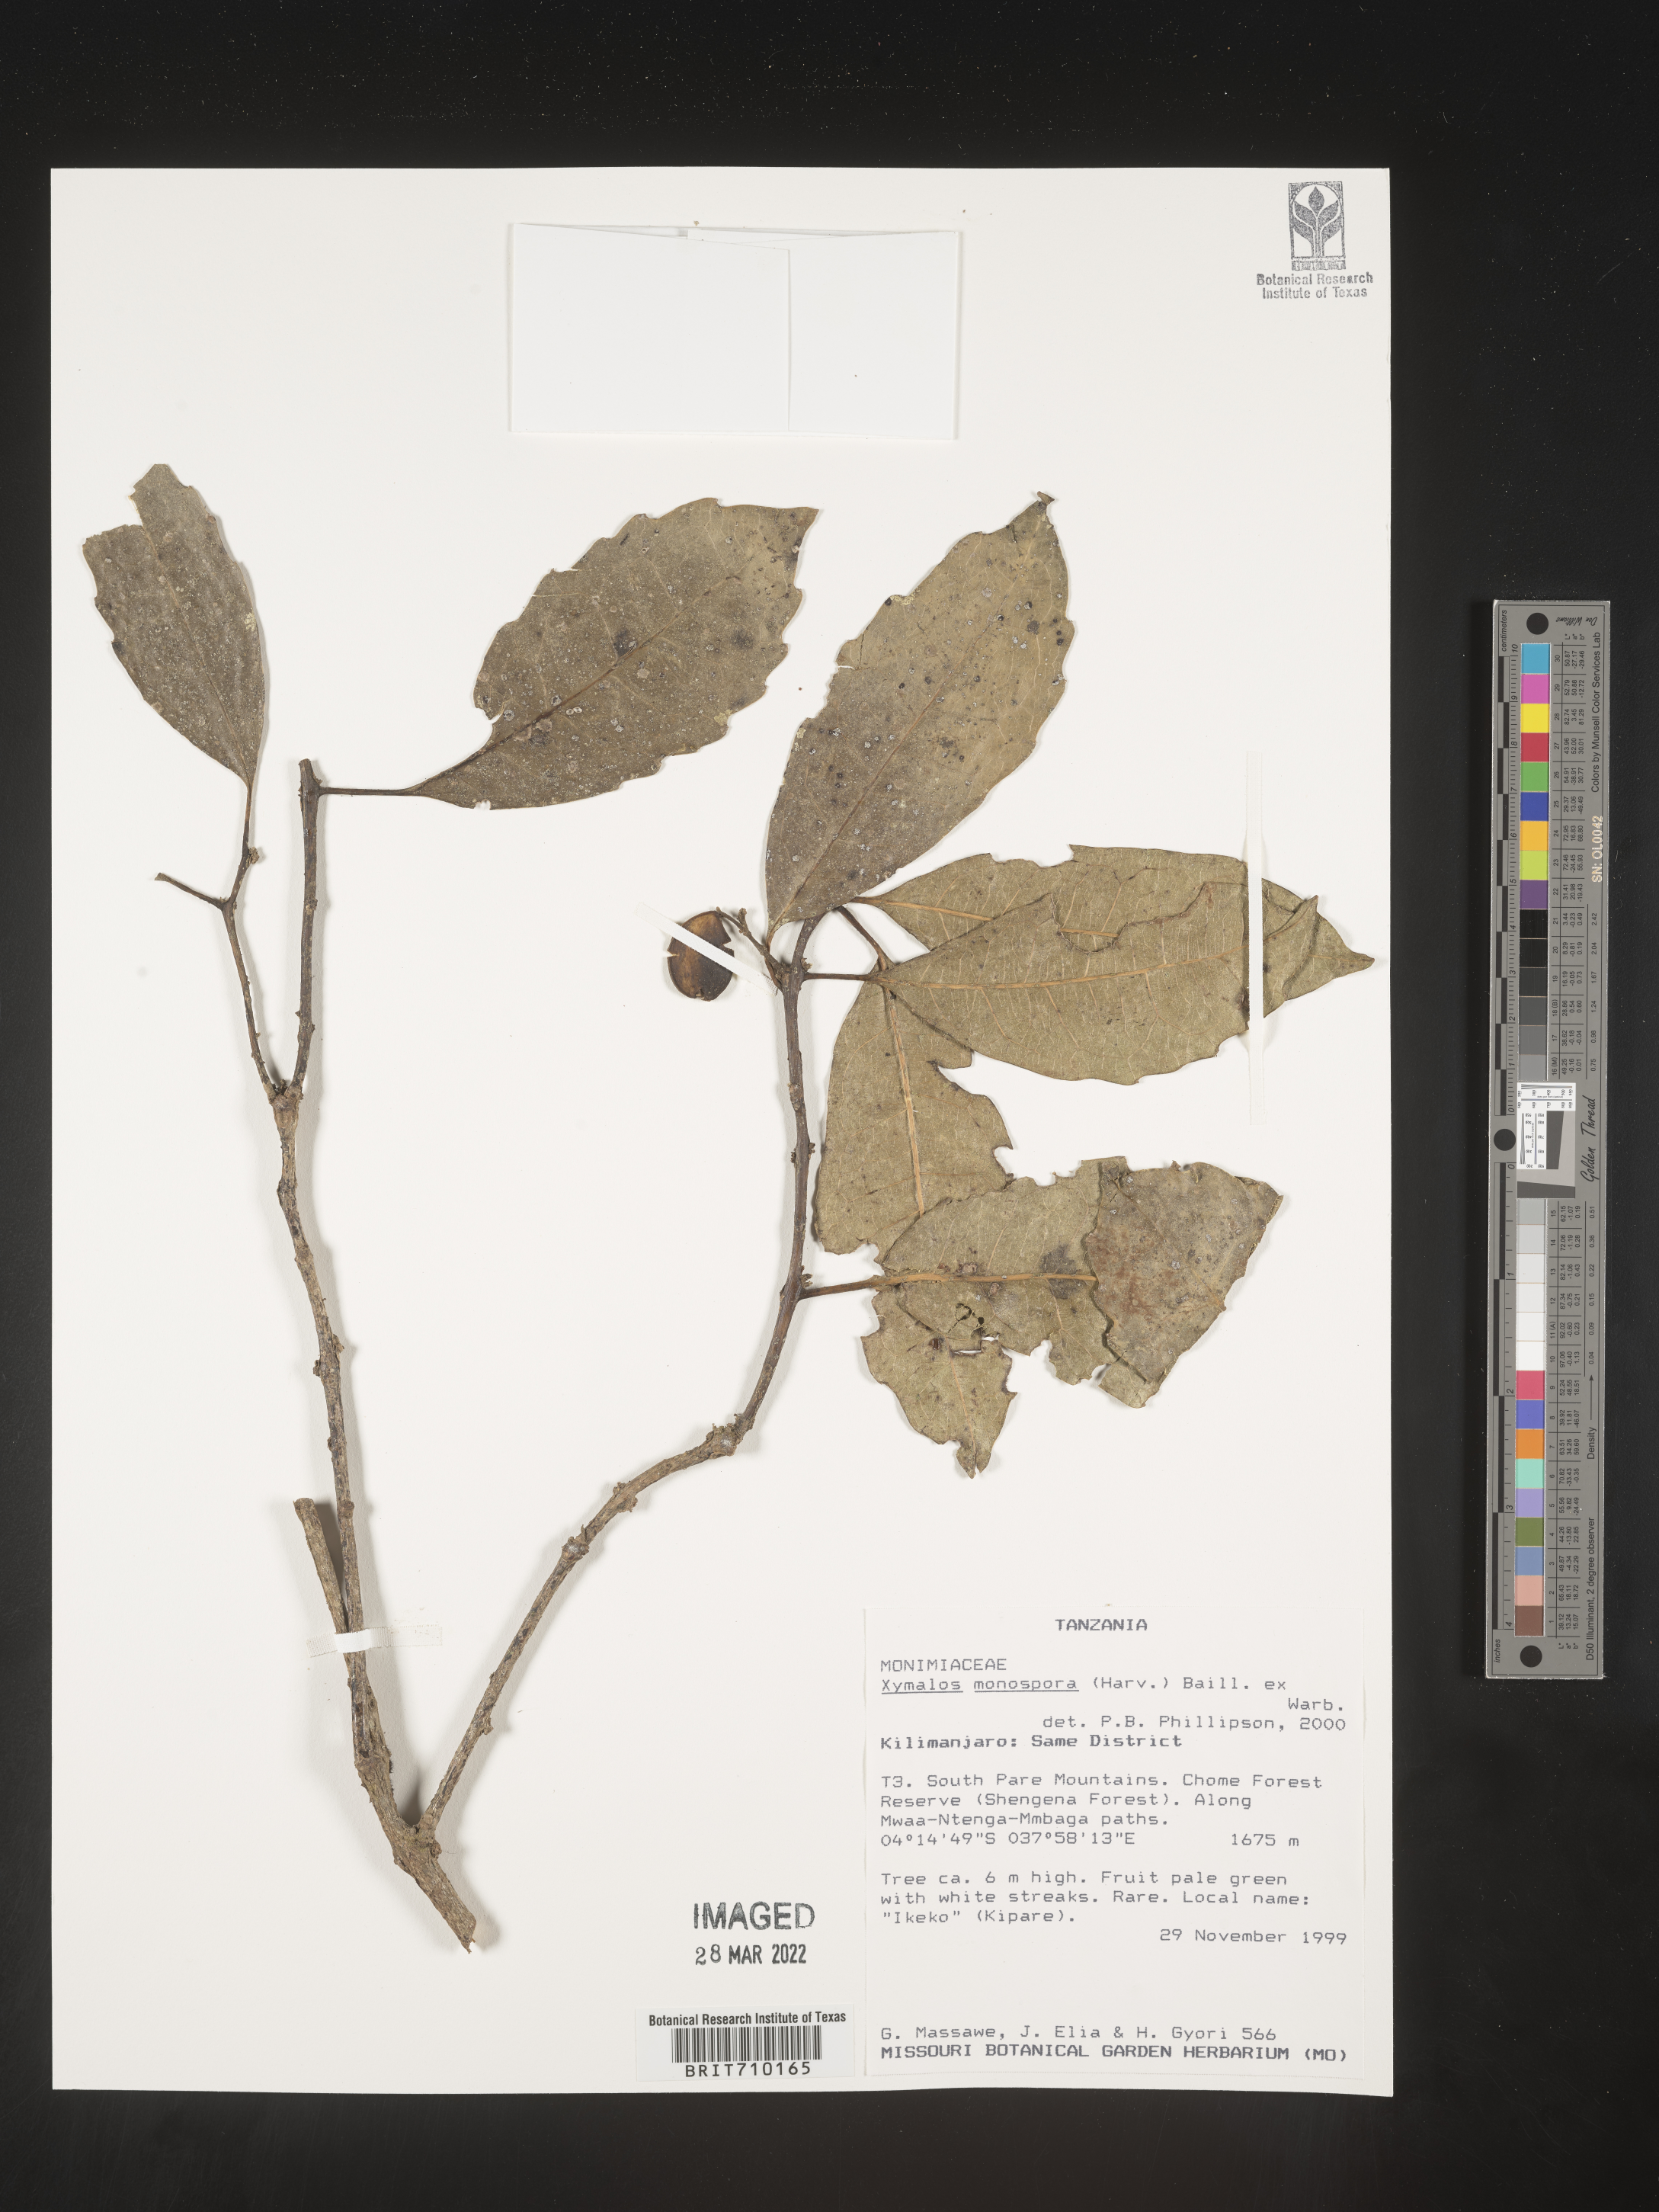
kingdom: Plantae
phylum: Tracheophyta
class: Magnoliopsida
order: Laurales
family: Monimiaceae
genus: Xymalos
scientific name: Xymalos
